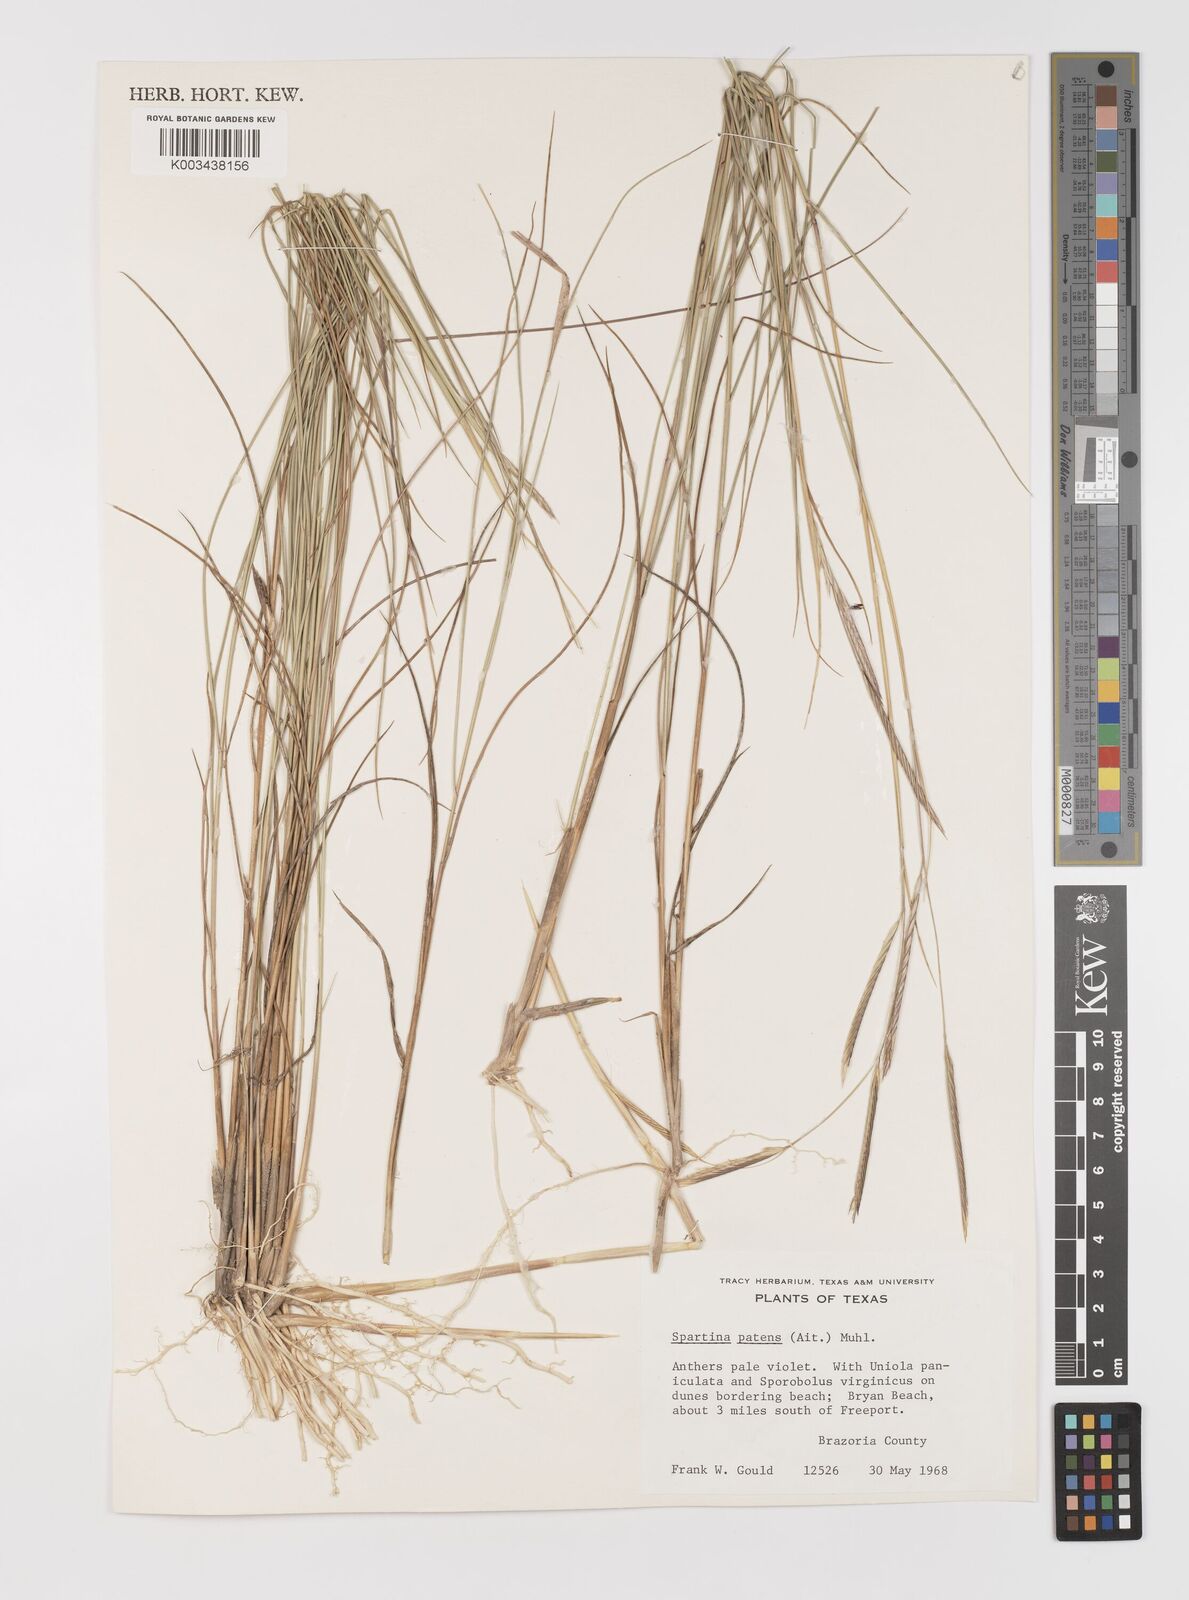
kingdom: Plantae
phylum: Tracheophyta
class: Liliopsida
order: Poales
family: Poaceae
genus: Sporobolus
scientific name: Sporobolus pumilus
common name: Highwater grass
